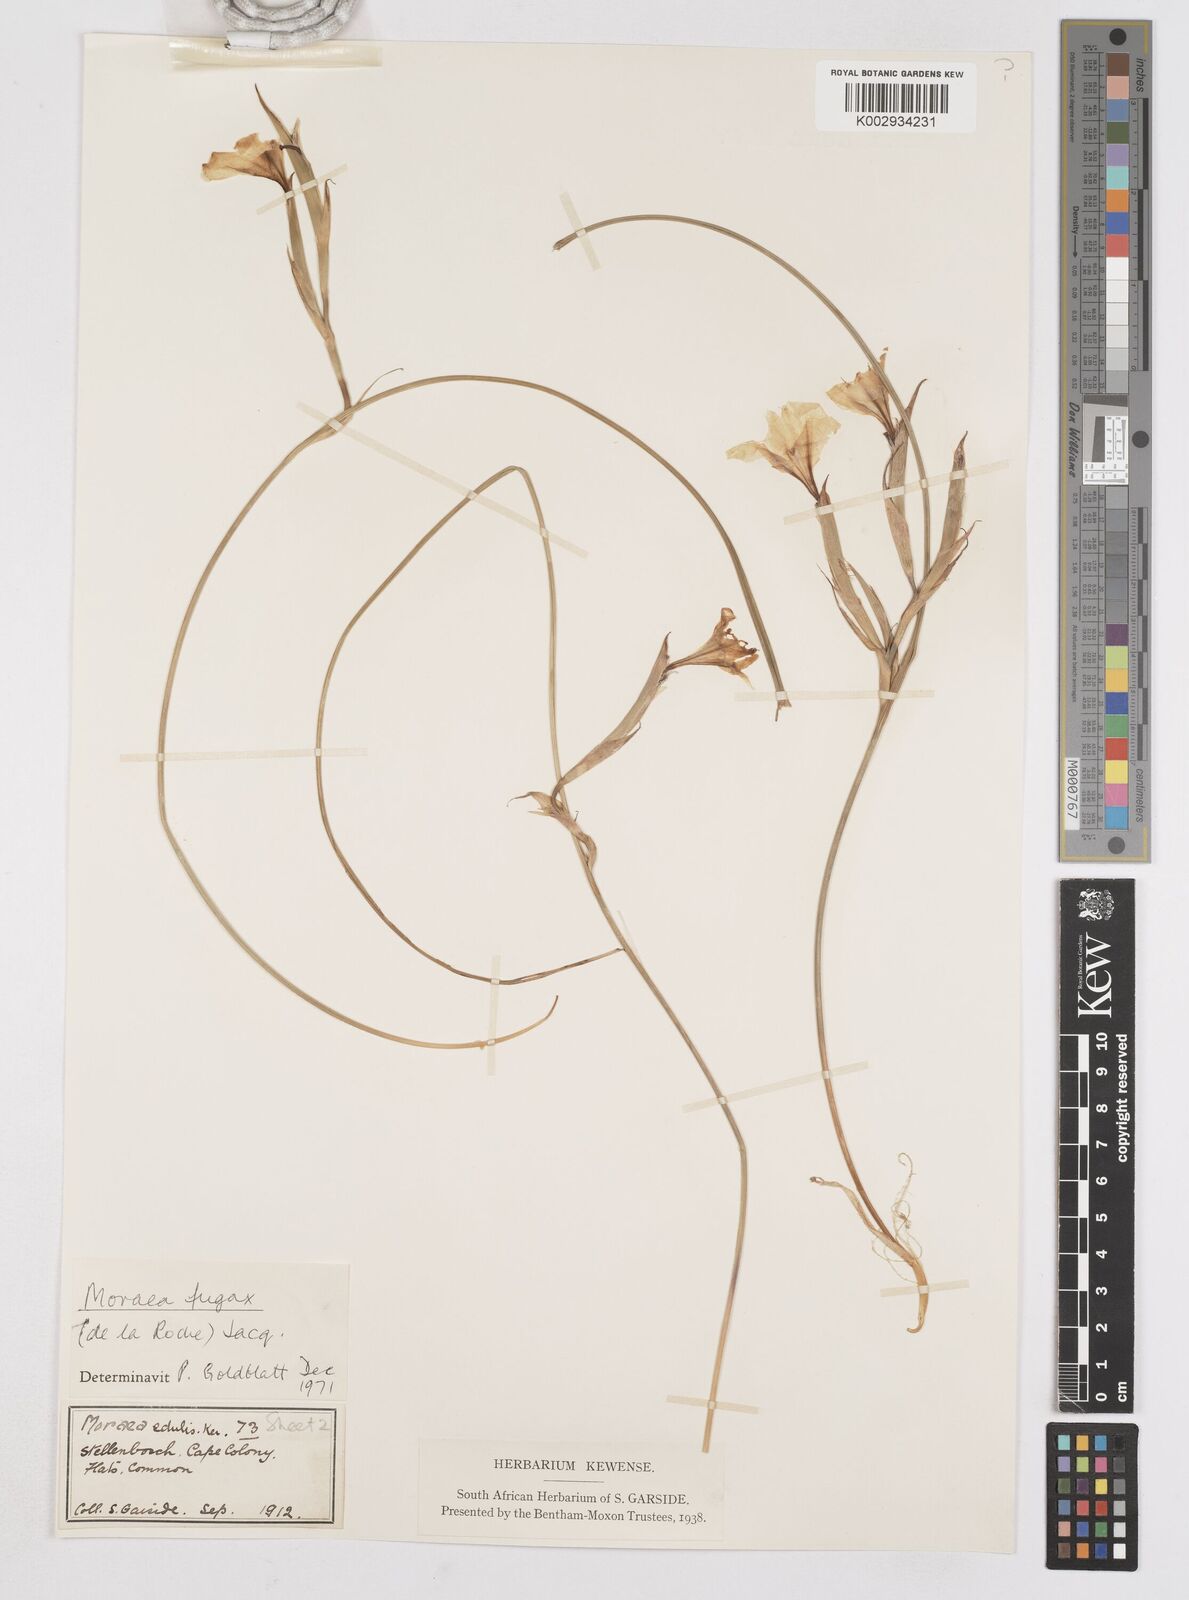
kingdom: Plantae
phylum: Tracheophyta
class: Liliopsida
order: Asparagales
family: Iridaceae
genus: Moraea
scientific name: Moraea fugax
